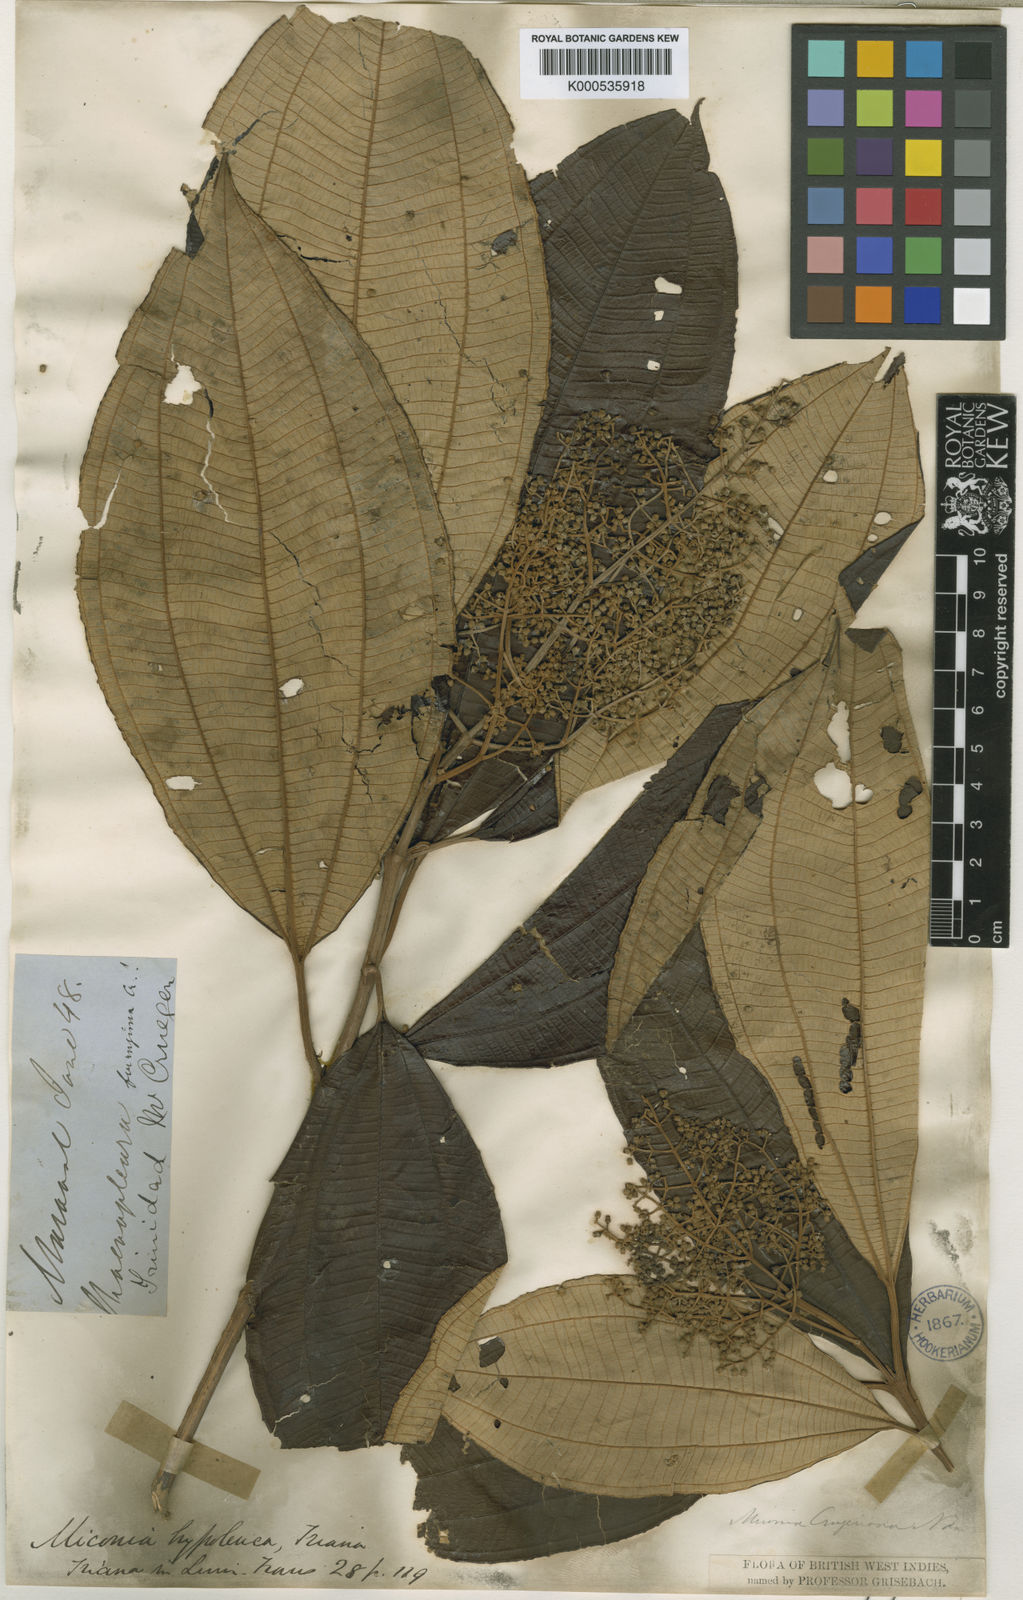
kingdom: Plantae
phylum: Tracheophyta
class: Magnoliopsida
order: Myrtales
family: Melastomataceae
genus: Miconia
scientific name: Miconia hypoleuca
